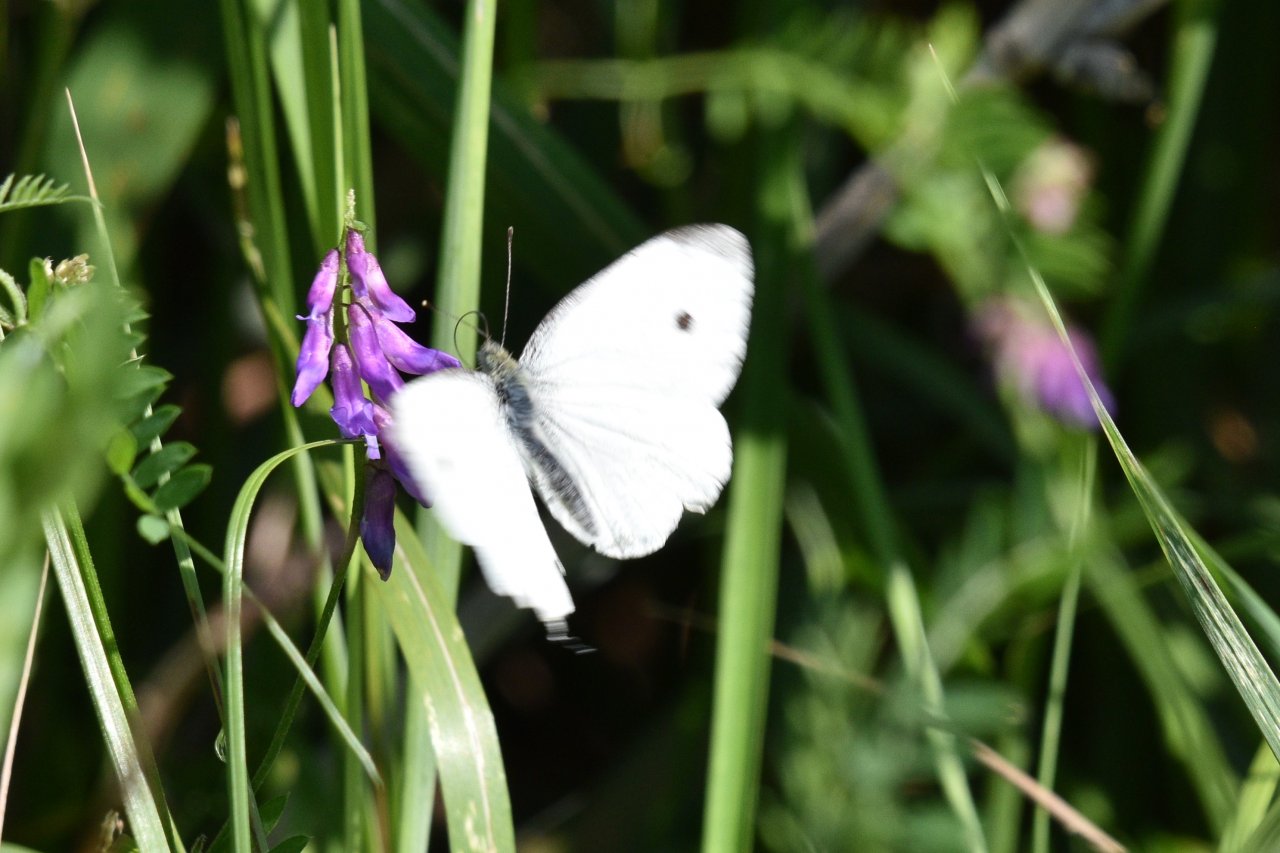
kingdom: Animalia
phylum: Arthropoda
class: Insecta
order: Lepidoptera
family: Pieridae
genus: Pieris
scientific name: Pieris rapae
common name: Cabbage White
